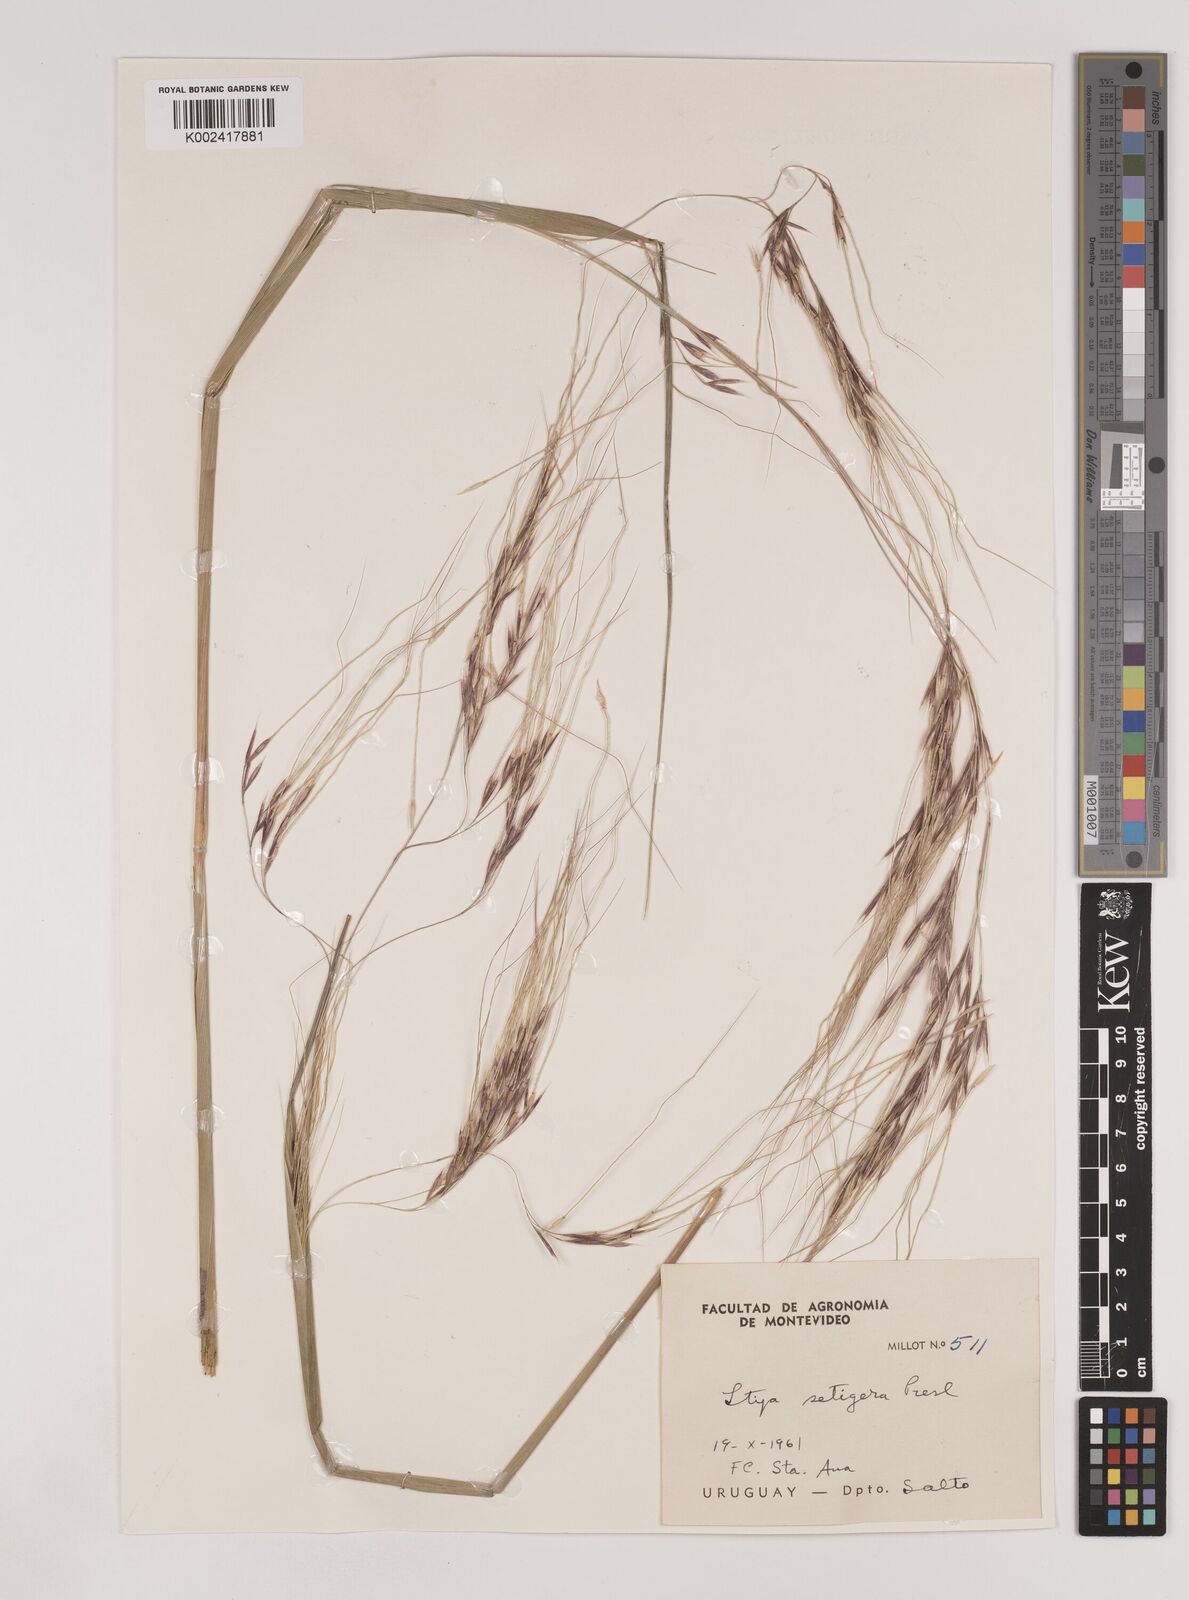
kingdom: Plantae
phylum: Tracheophyta
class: Liliopsida
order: Poales
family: Poaceae
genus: Nassella
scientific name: Nassella neesiana
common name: American needle-grass
